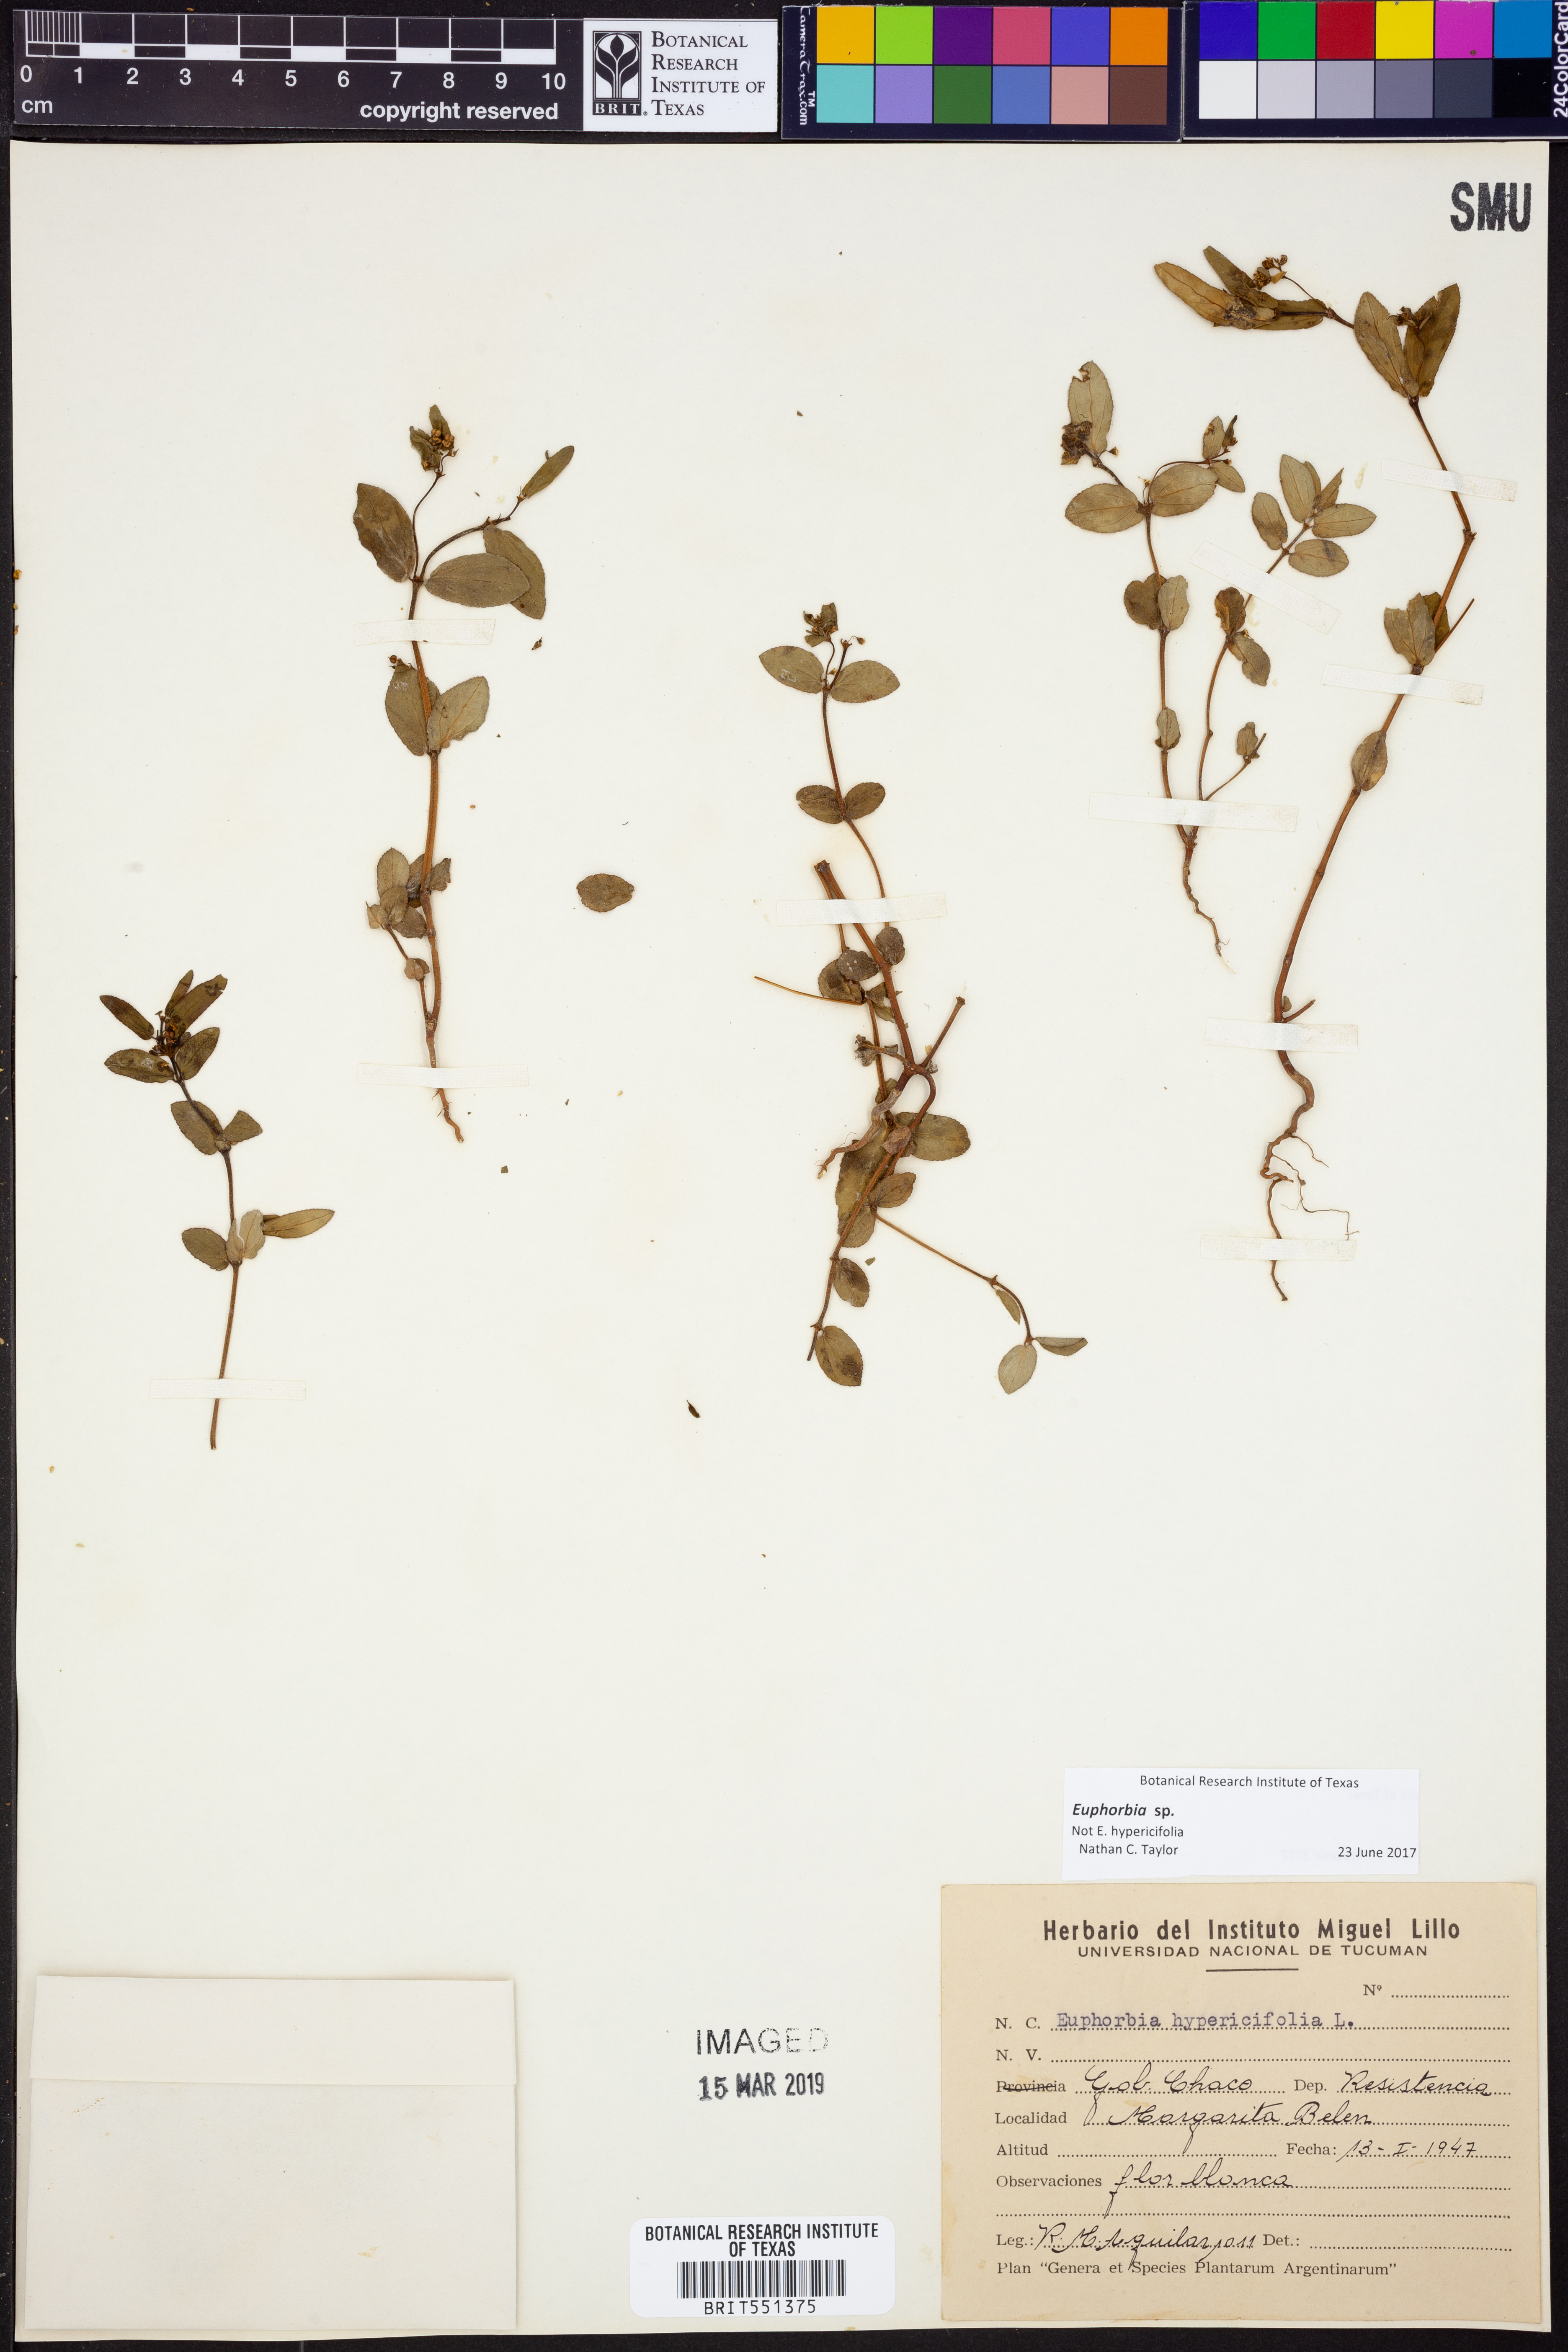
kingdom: Plantae
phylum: Tracheophyta
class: Magnoliopsida
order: Malpighiales
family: Euphorbiaceae
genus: Euphorbia
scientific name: Euphorbia
